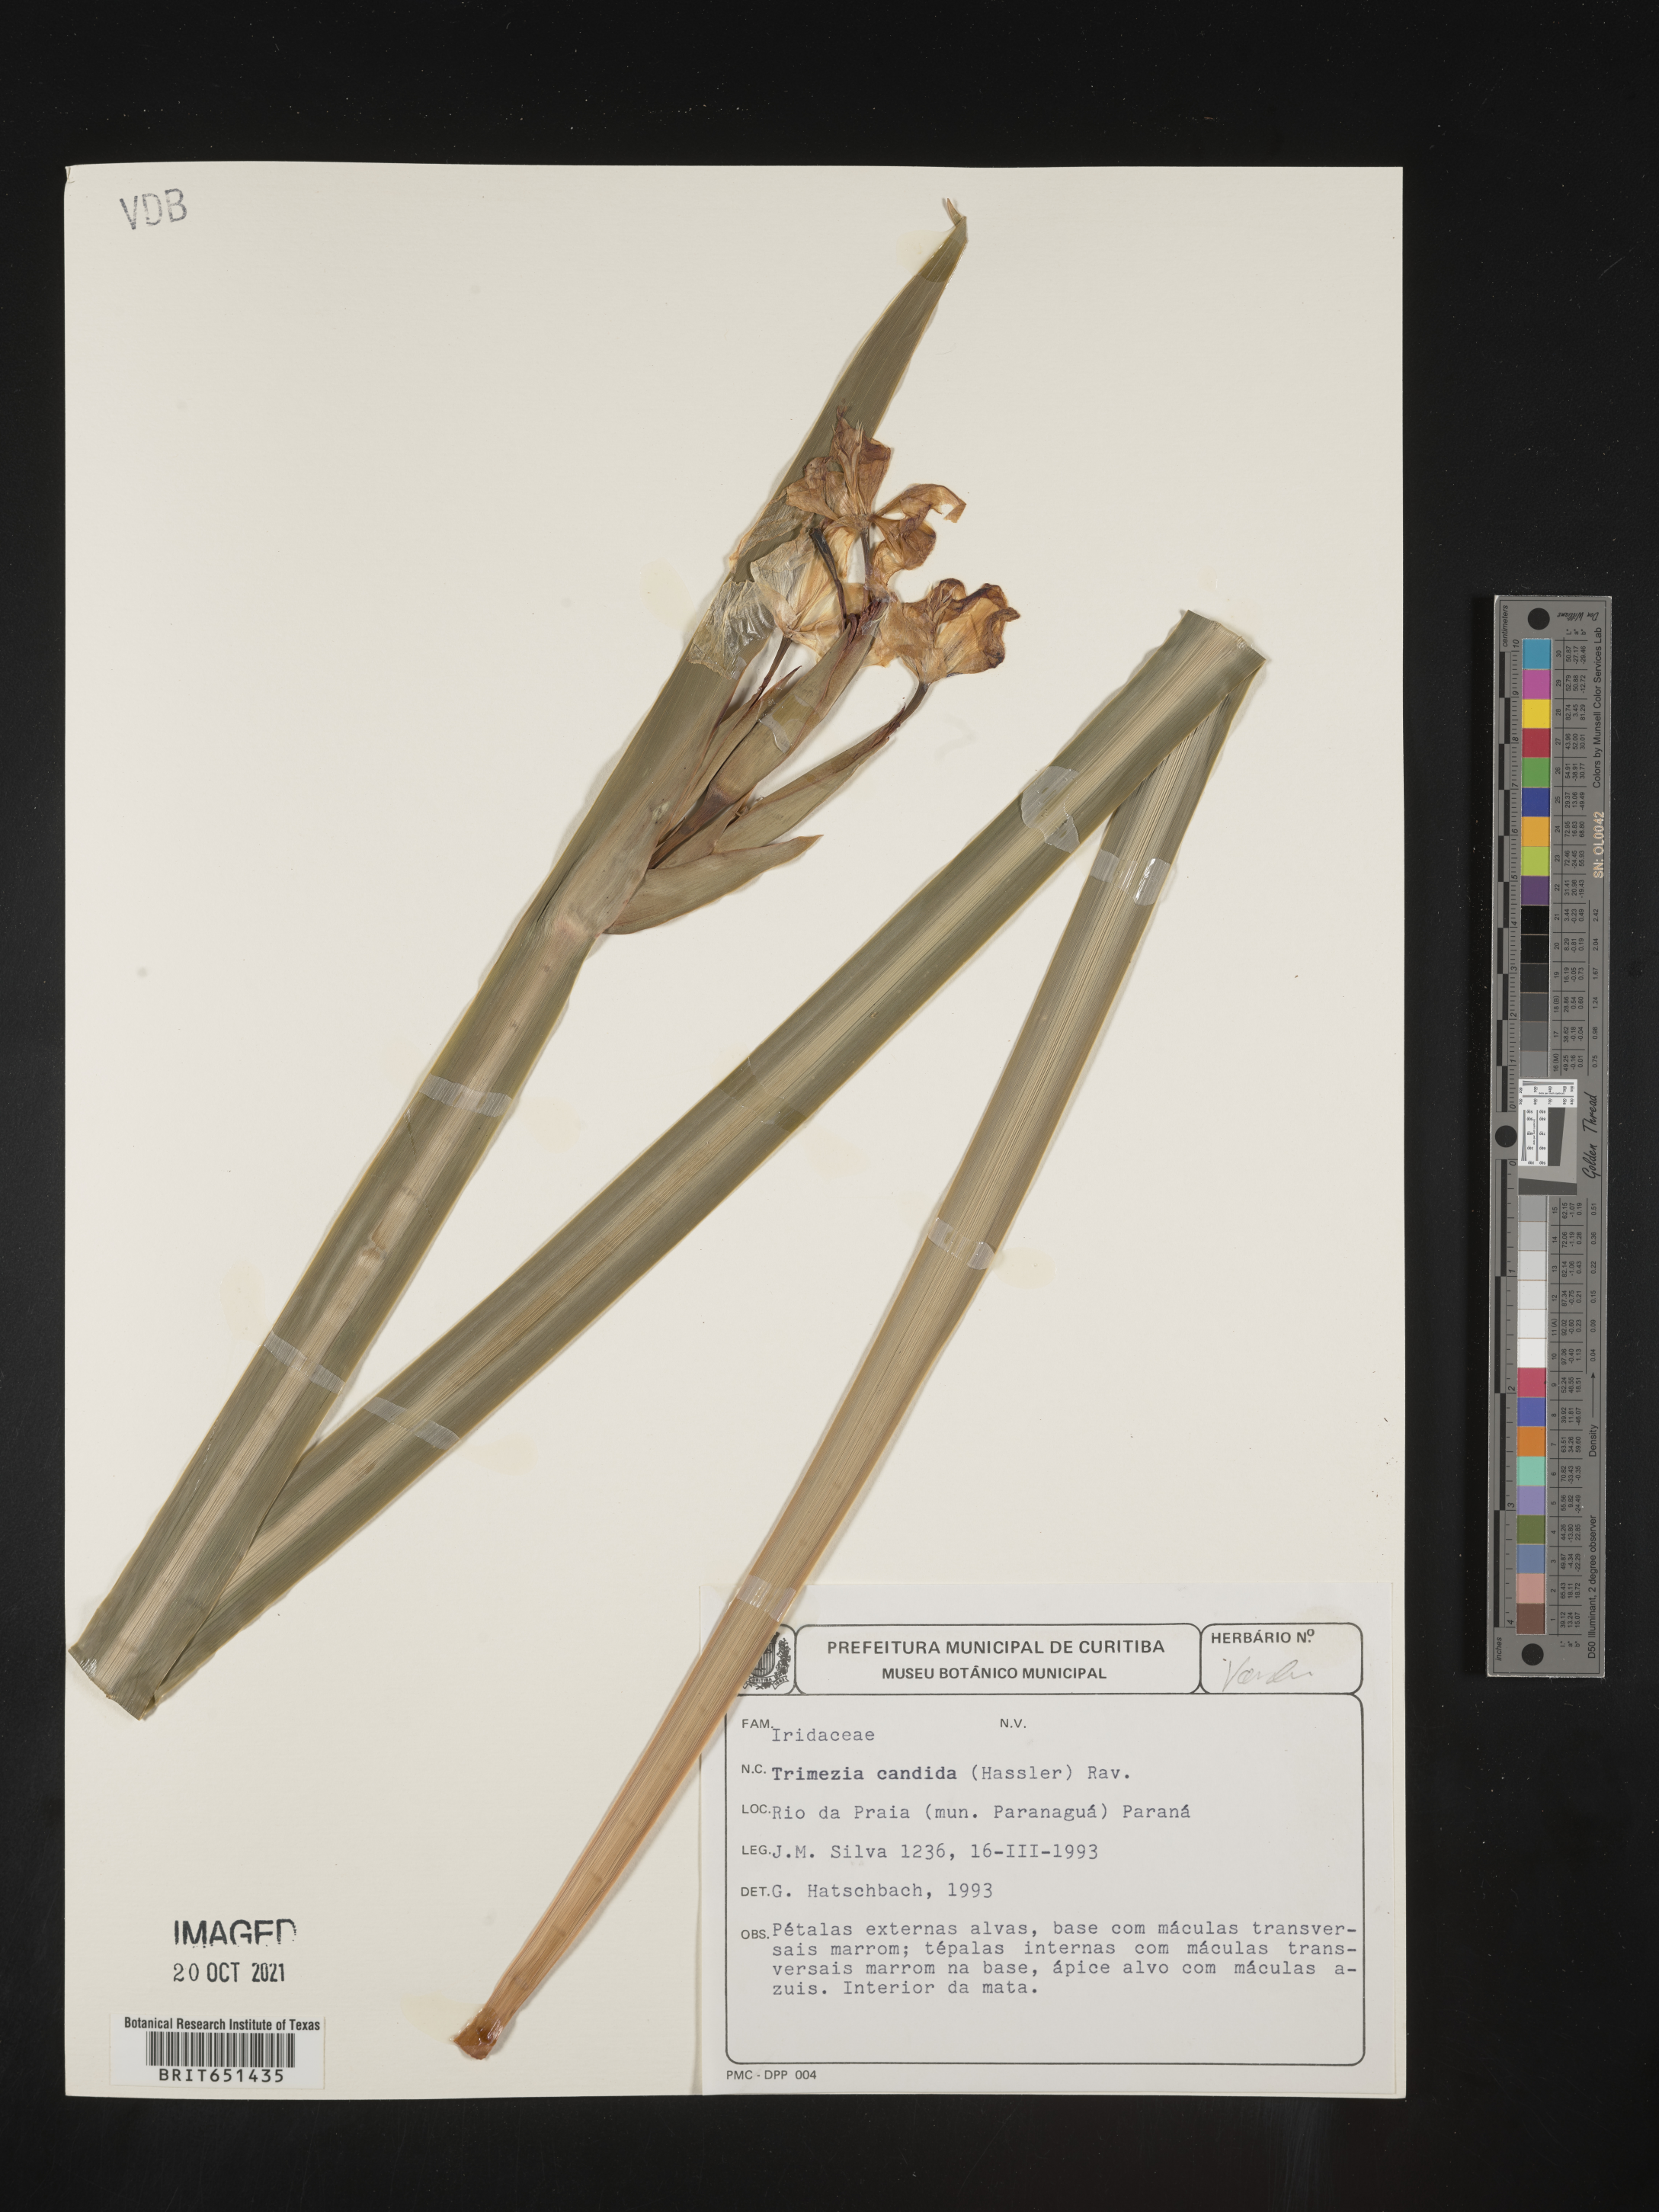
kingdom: Plantae
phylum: Tracheophyta
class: Liliopsida
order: Asparagales
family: Iridaceae
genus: Trimezia
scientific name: Trimezia
